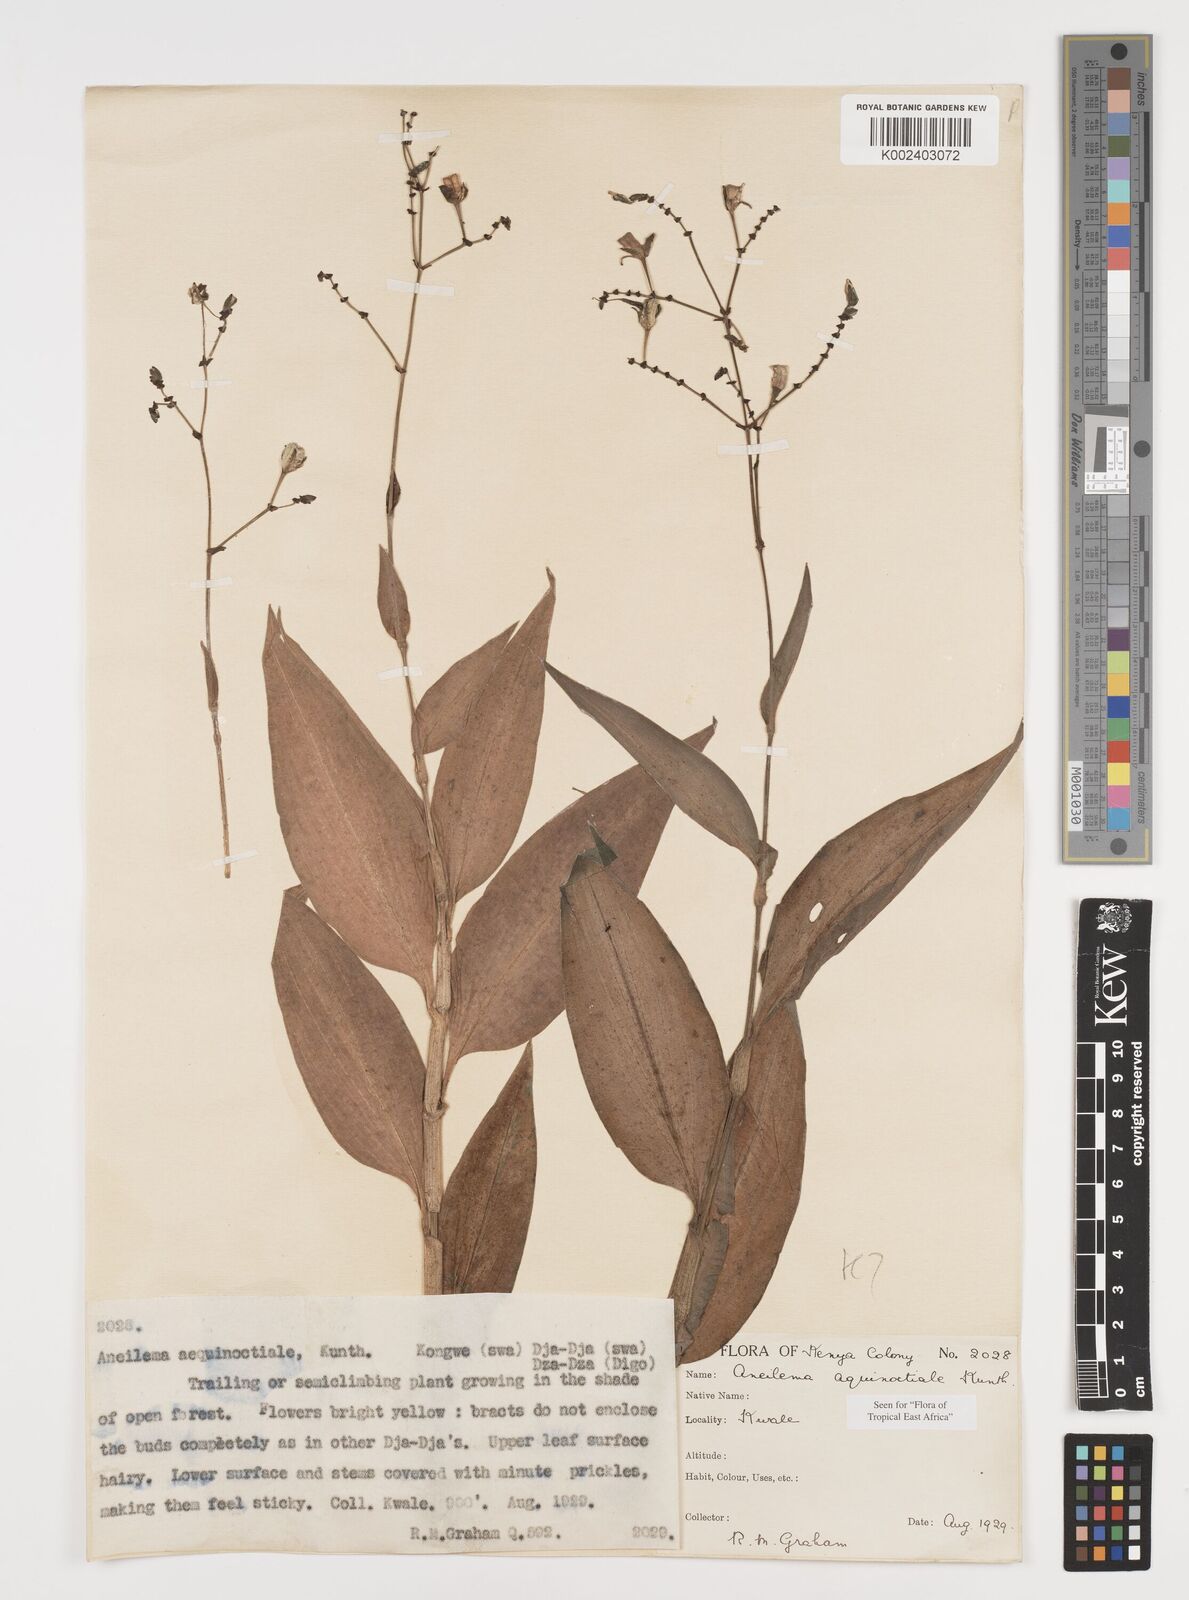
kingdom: Plantae
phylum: Tracheophyta
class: Liliopsida
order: Commelinales
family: Commelinaceae
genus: Aneilema
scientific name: Aneilema aequinoctiale
